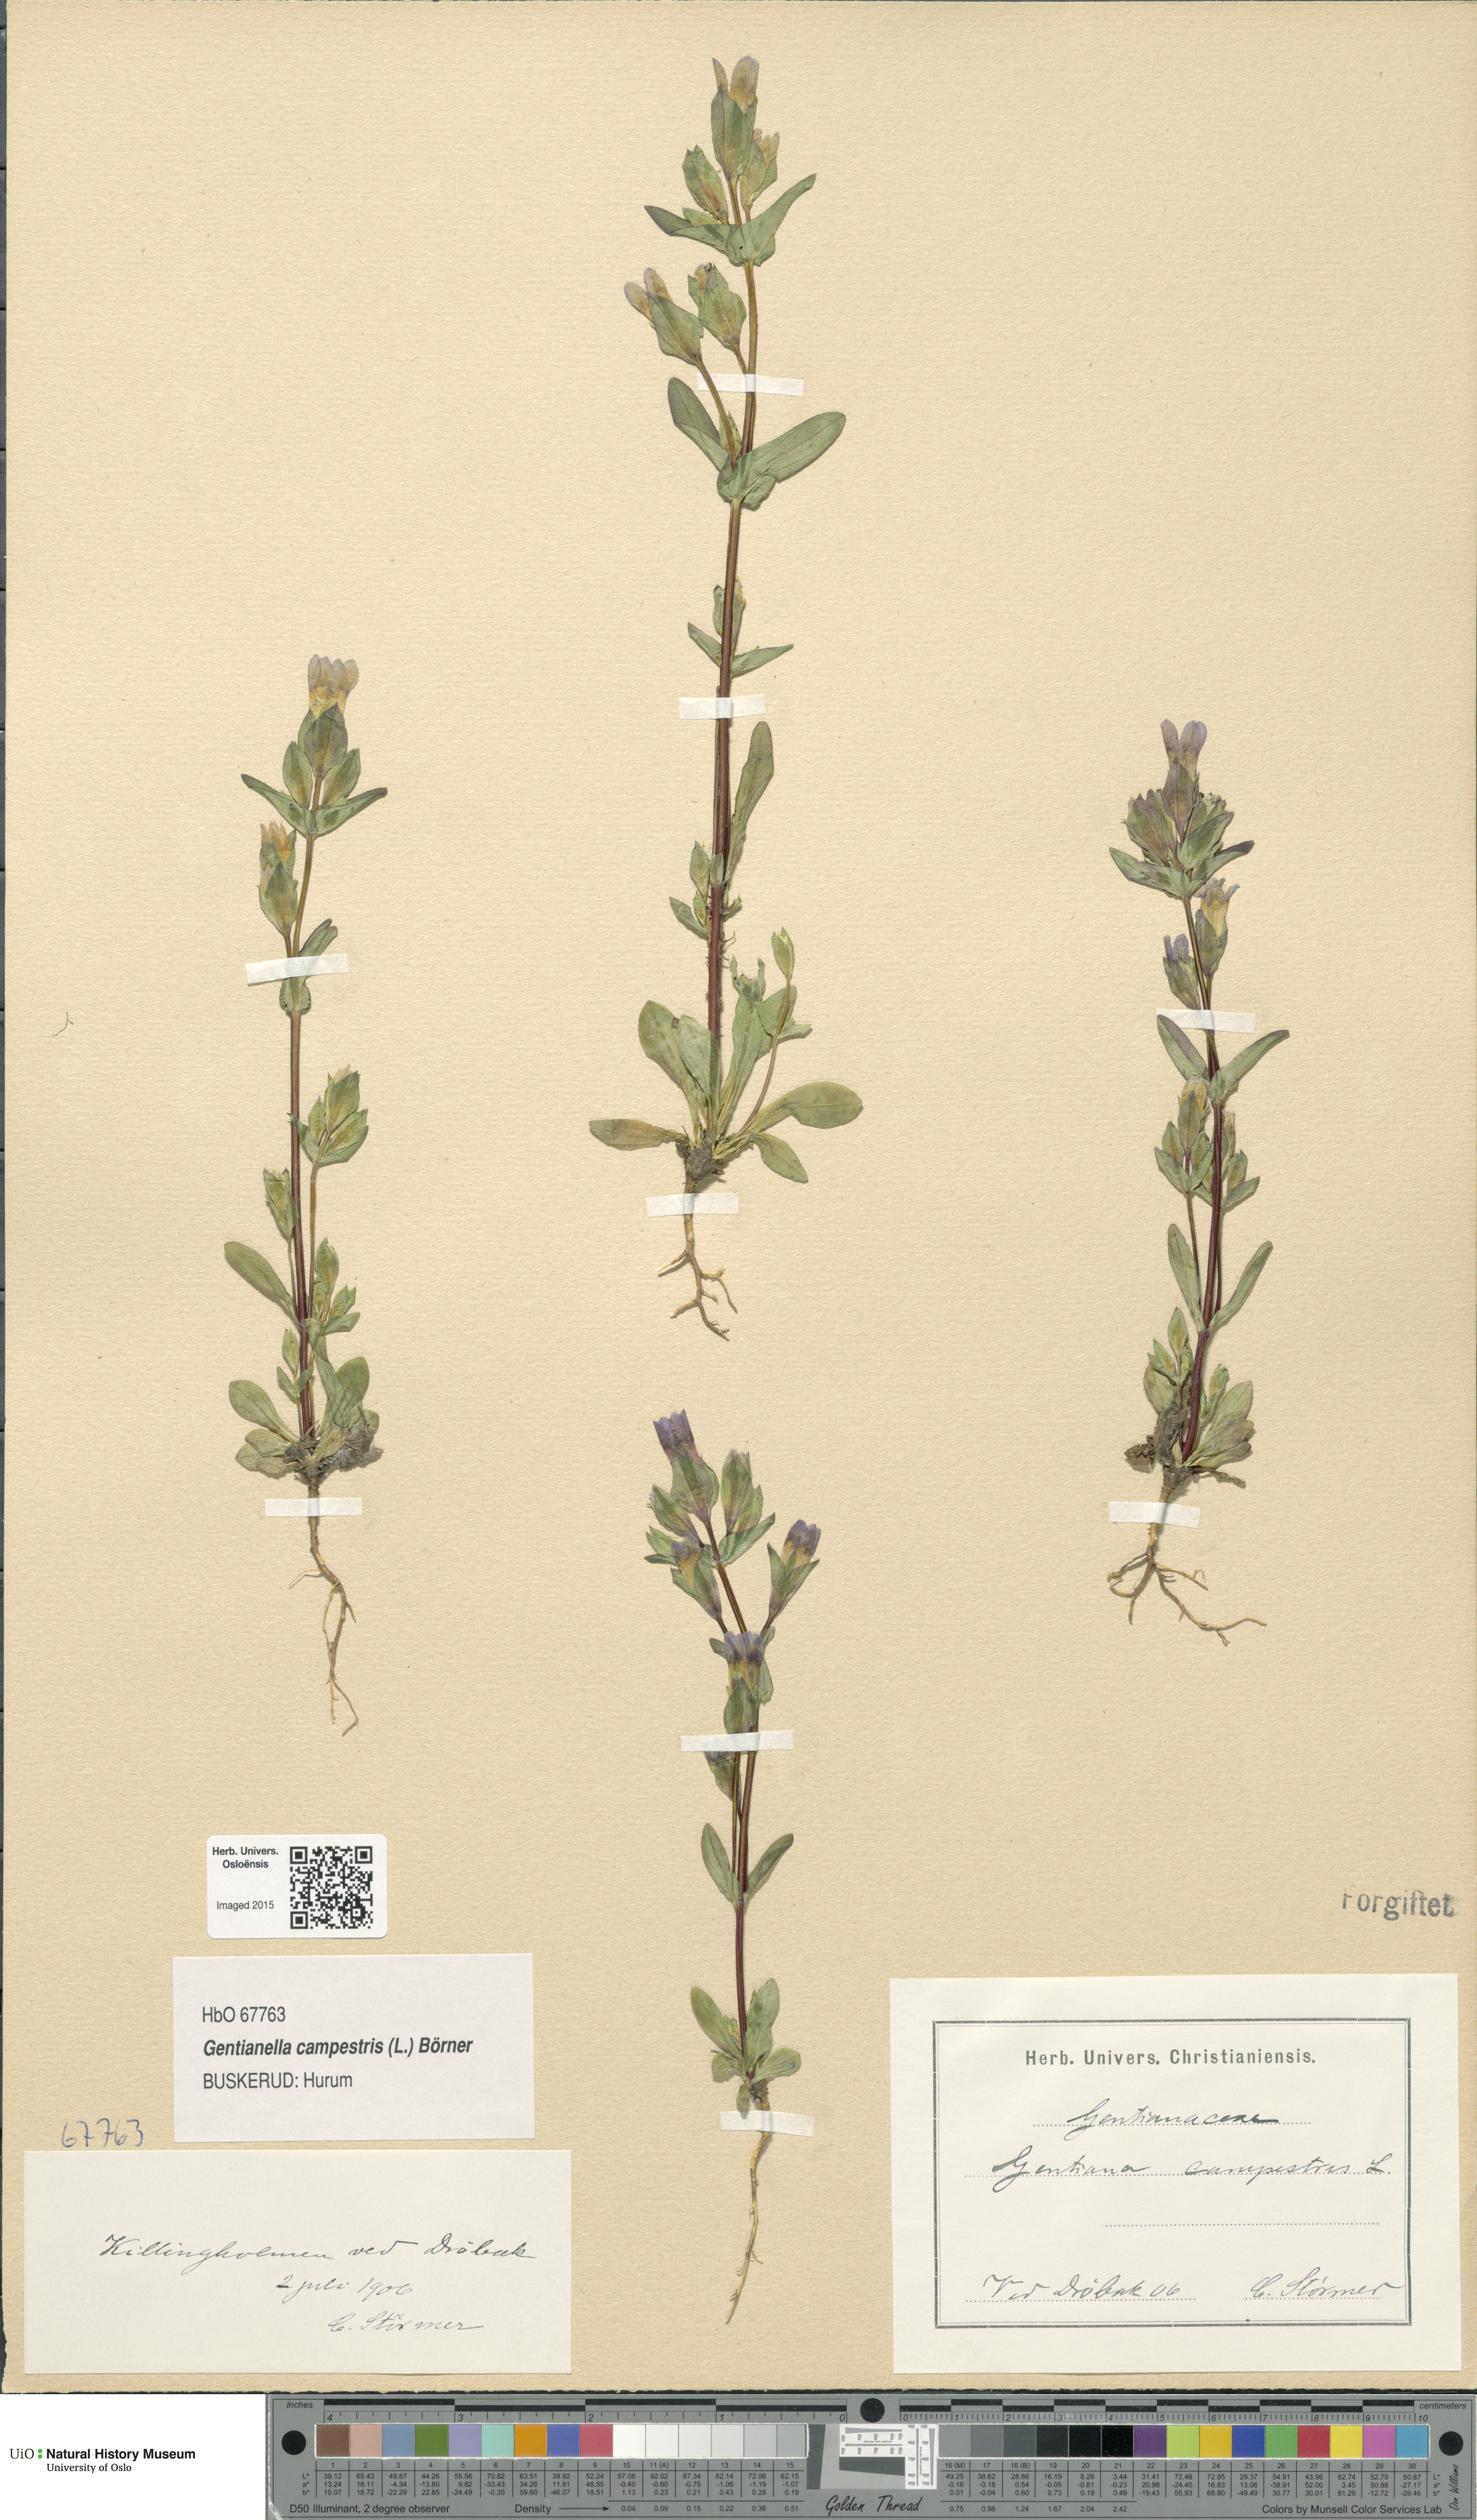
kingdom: Plantae
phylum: Tracheophyta
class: Magnoliopsida
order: Gentianales
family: Gentianaceae
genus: Gentianella
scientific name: Gentianella campestris
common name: Field gentian
